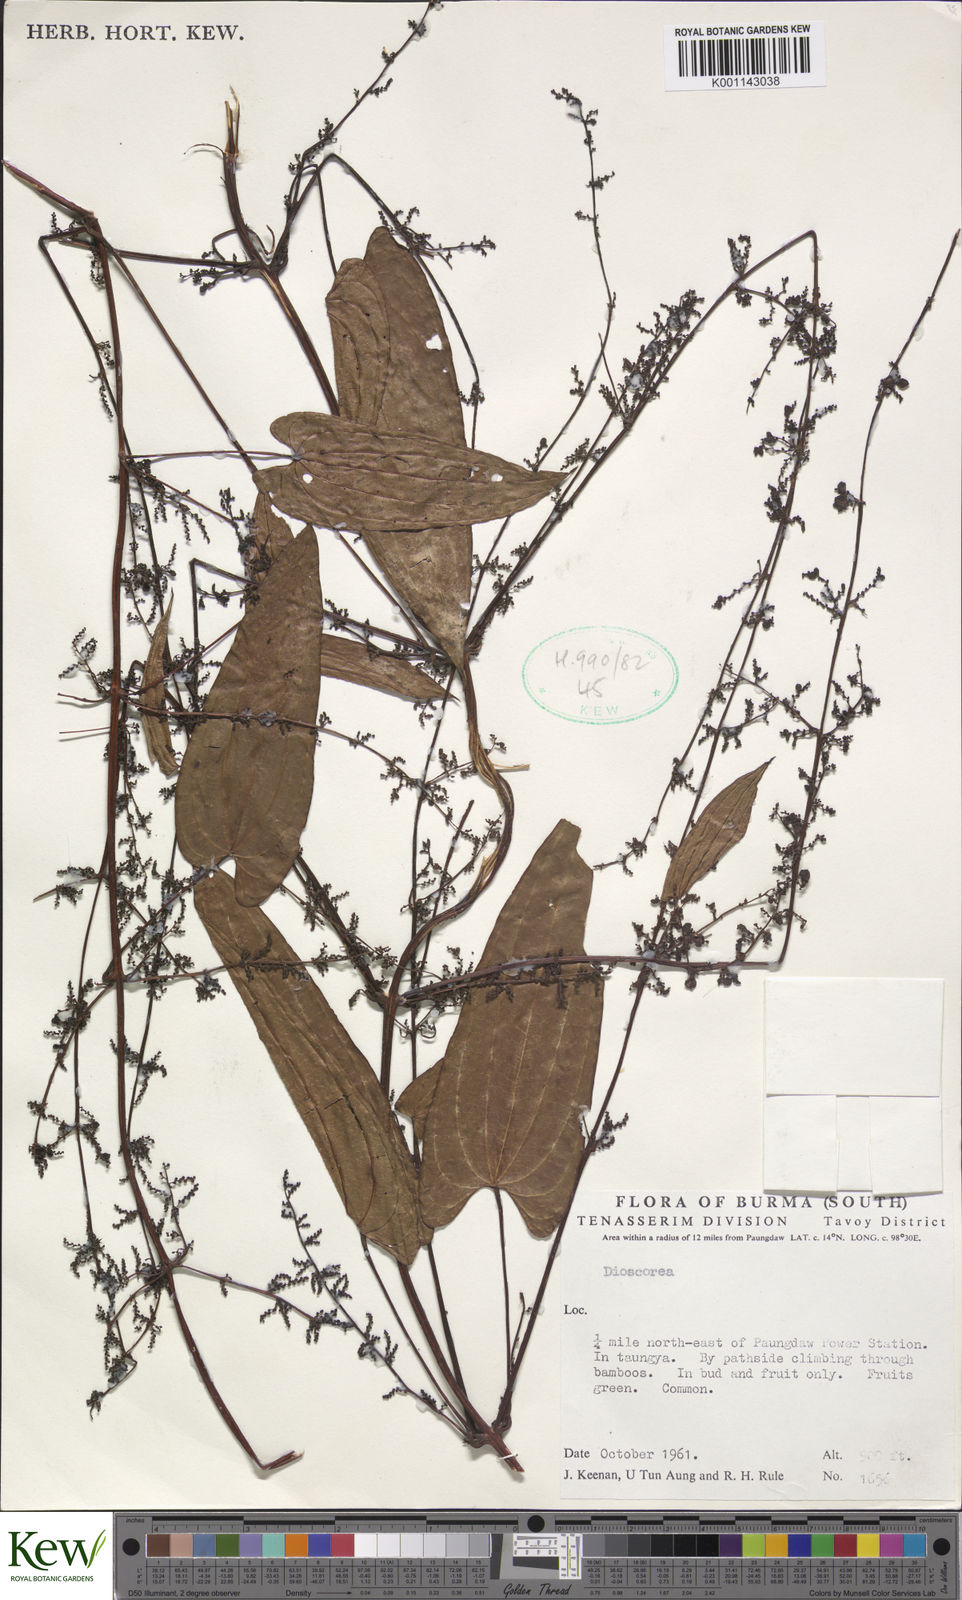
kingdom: Plantae
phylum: Tracheophyta
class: Liliopsida
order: Dioscoreales
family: Dioscoreaceae
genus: Dioscorea
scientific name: Dioscorea
